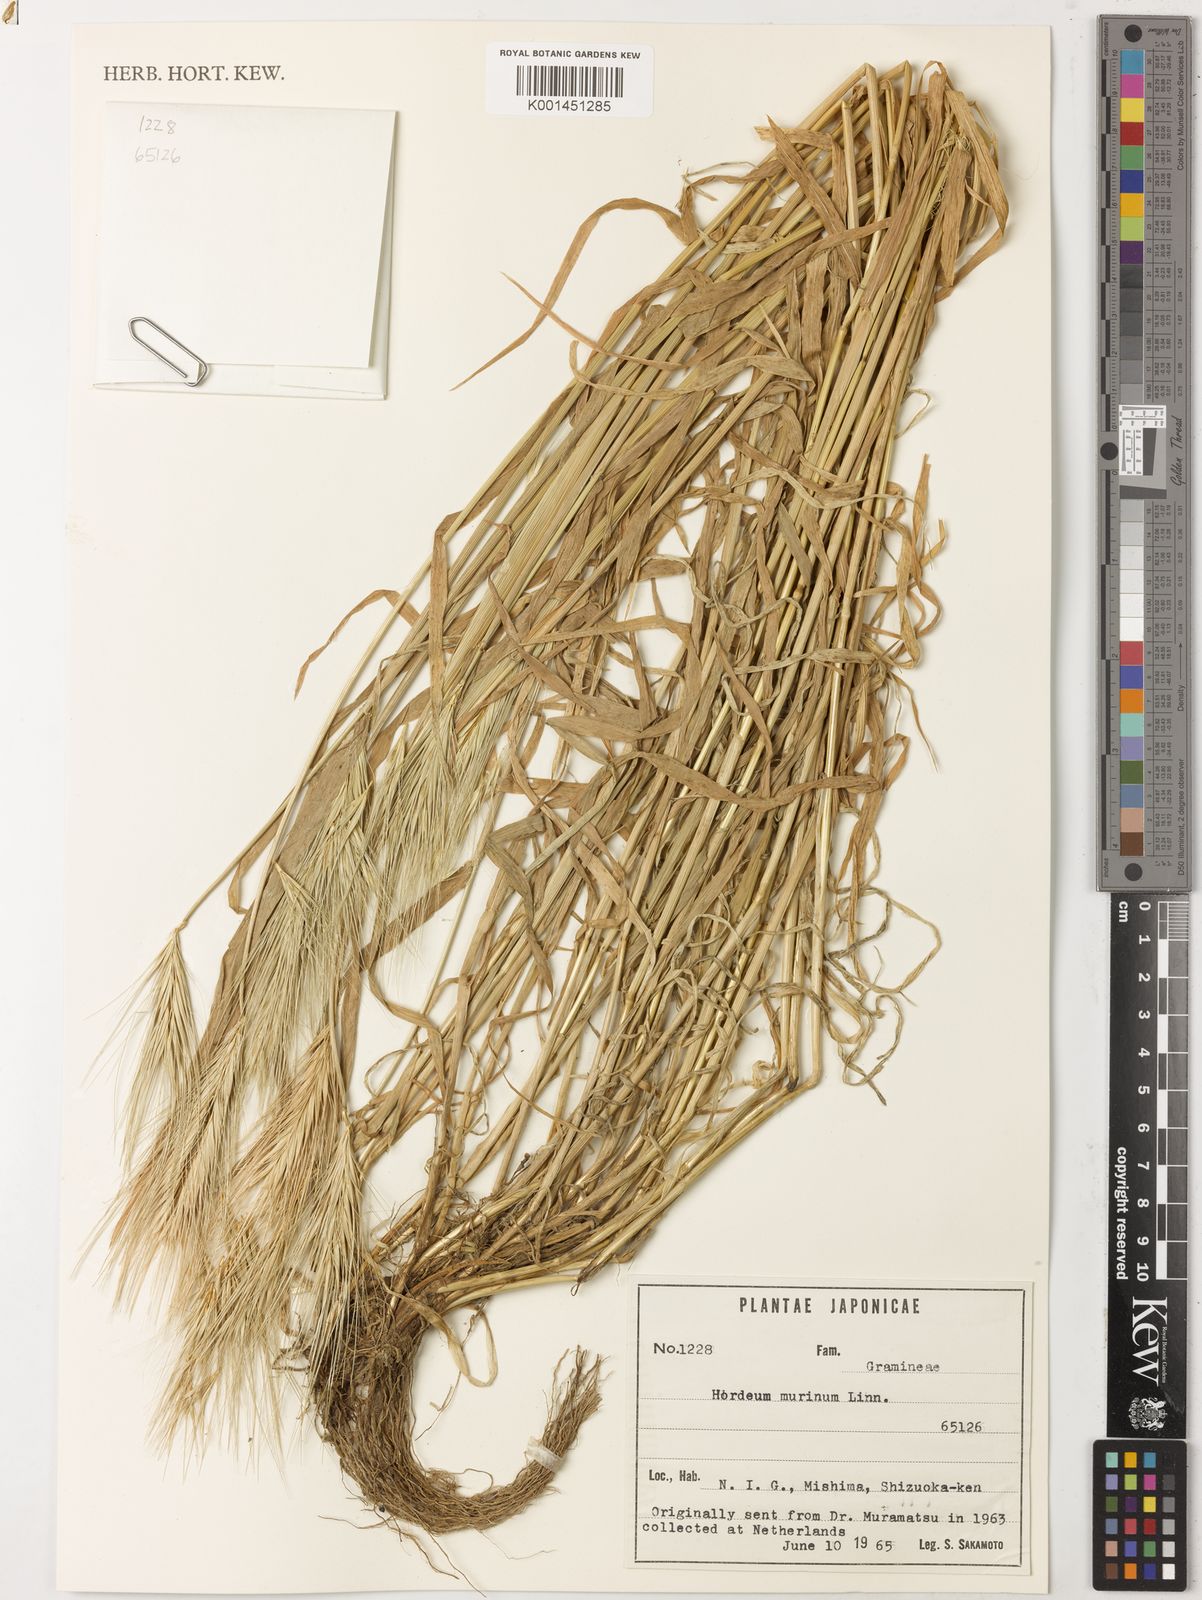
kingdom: Plantae
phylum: Tracheophyta
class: Liliopsida
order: Poales
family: Poaceae
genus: Hordeum
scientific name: Hordeum murinum
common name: Wall barley
